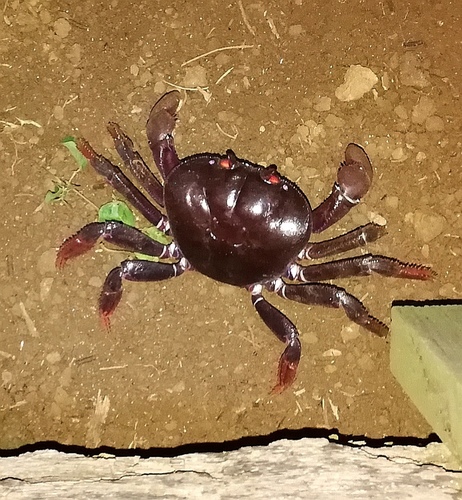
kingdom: Animalia
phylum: Arthropoda
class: Malacostraca
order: Decapoda
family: Gecarcinidae
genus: Johngarthia
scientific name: Johngarthia weileri
